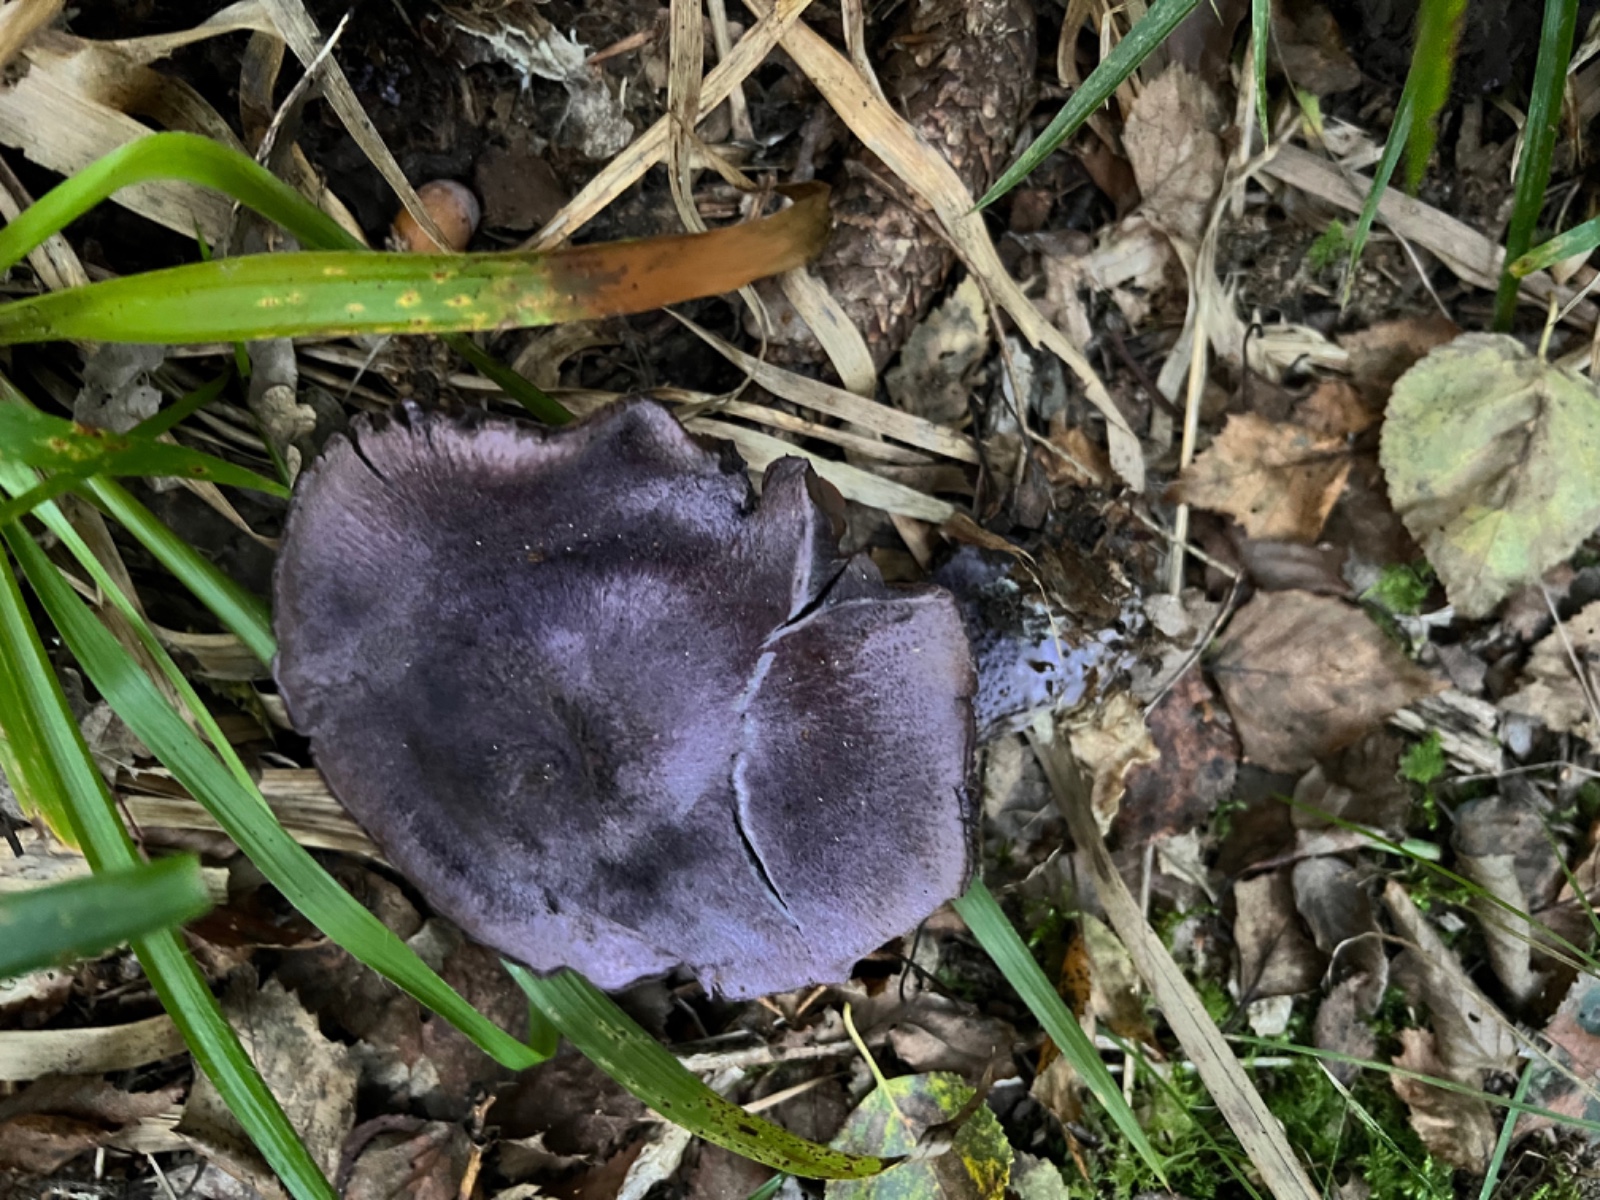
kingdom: Fungi
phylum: Basidiomycota
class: Agaricomycetes
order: Agaricales
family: Cortinariaceae
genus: Cortinarius
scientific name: Cortinarius violaceus
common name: mørkviolet slørhat
